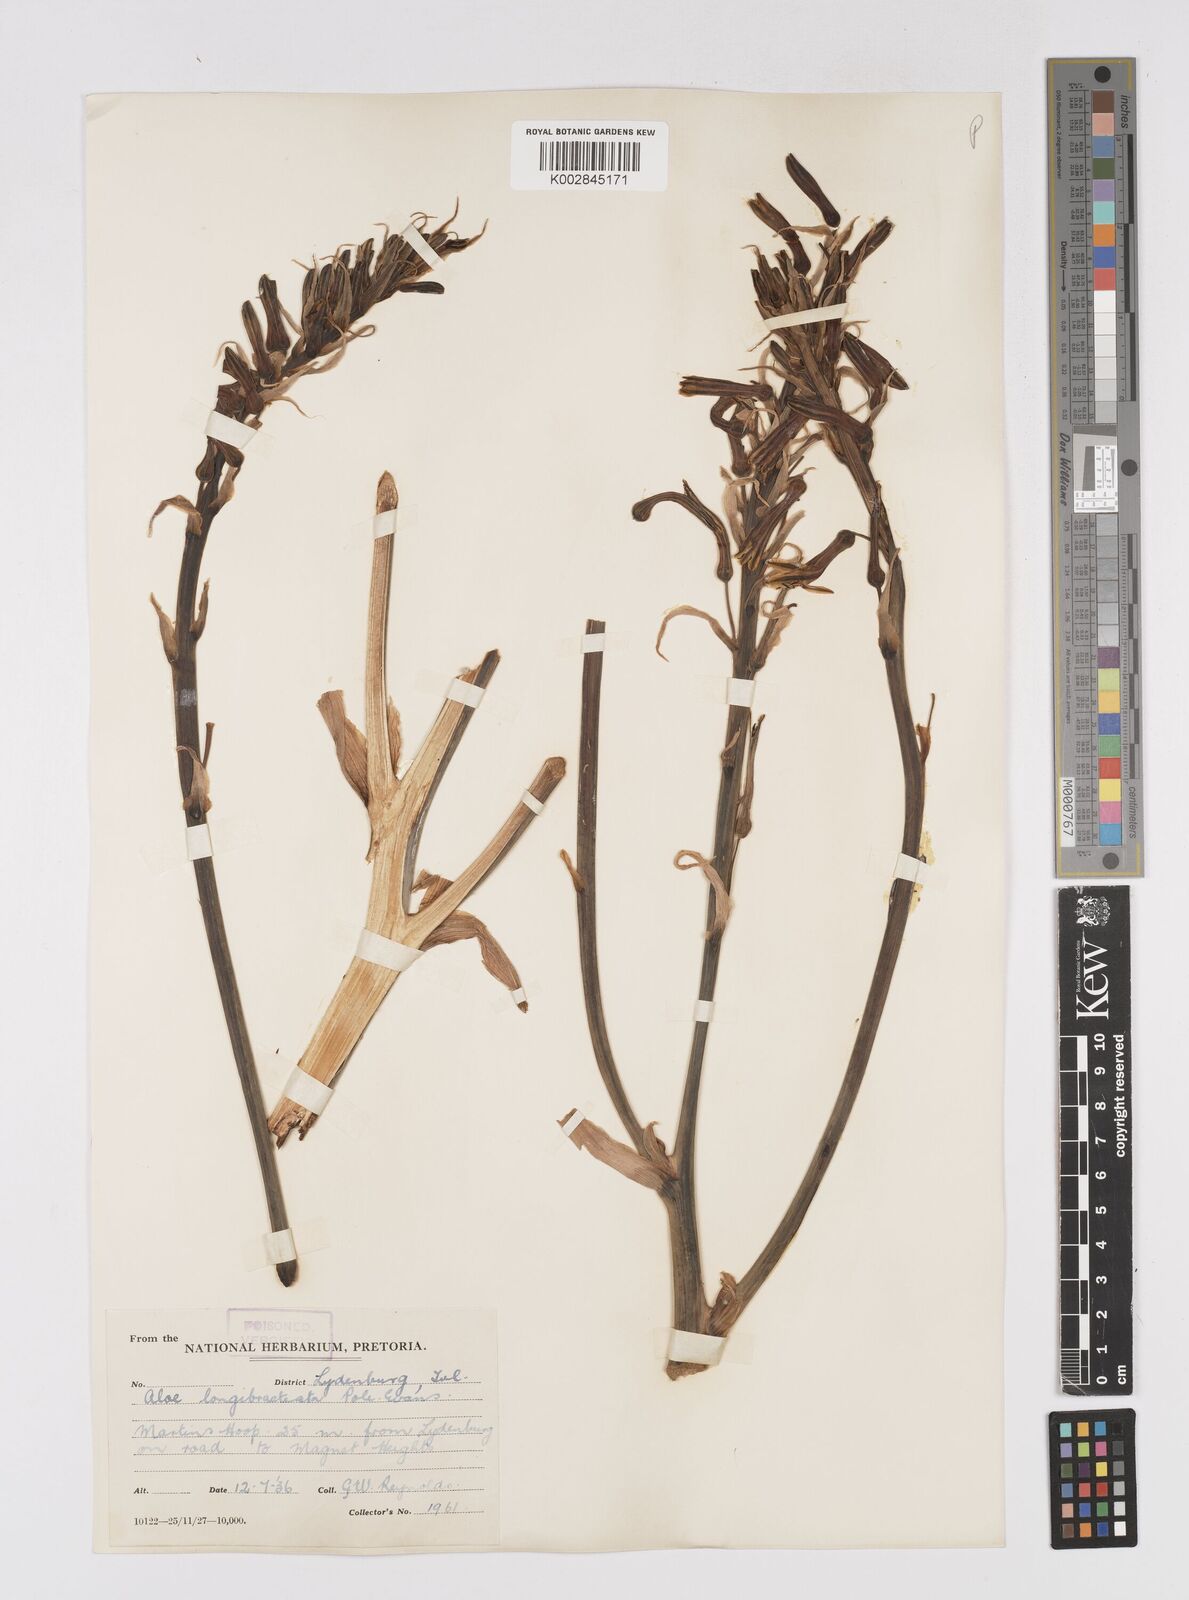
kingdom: Plantae
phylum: Tracheophyta
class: Liliopsida
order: Asparagales
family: Asphodelaceae
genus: Aloe
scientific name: Aloe longibracteata
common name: Limpopo spotted aloe
